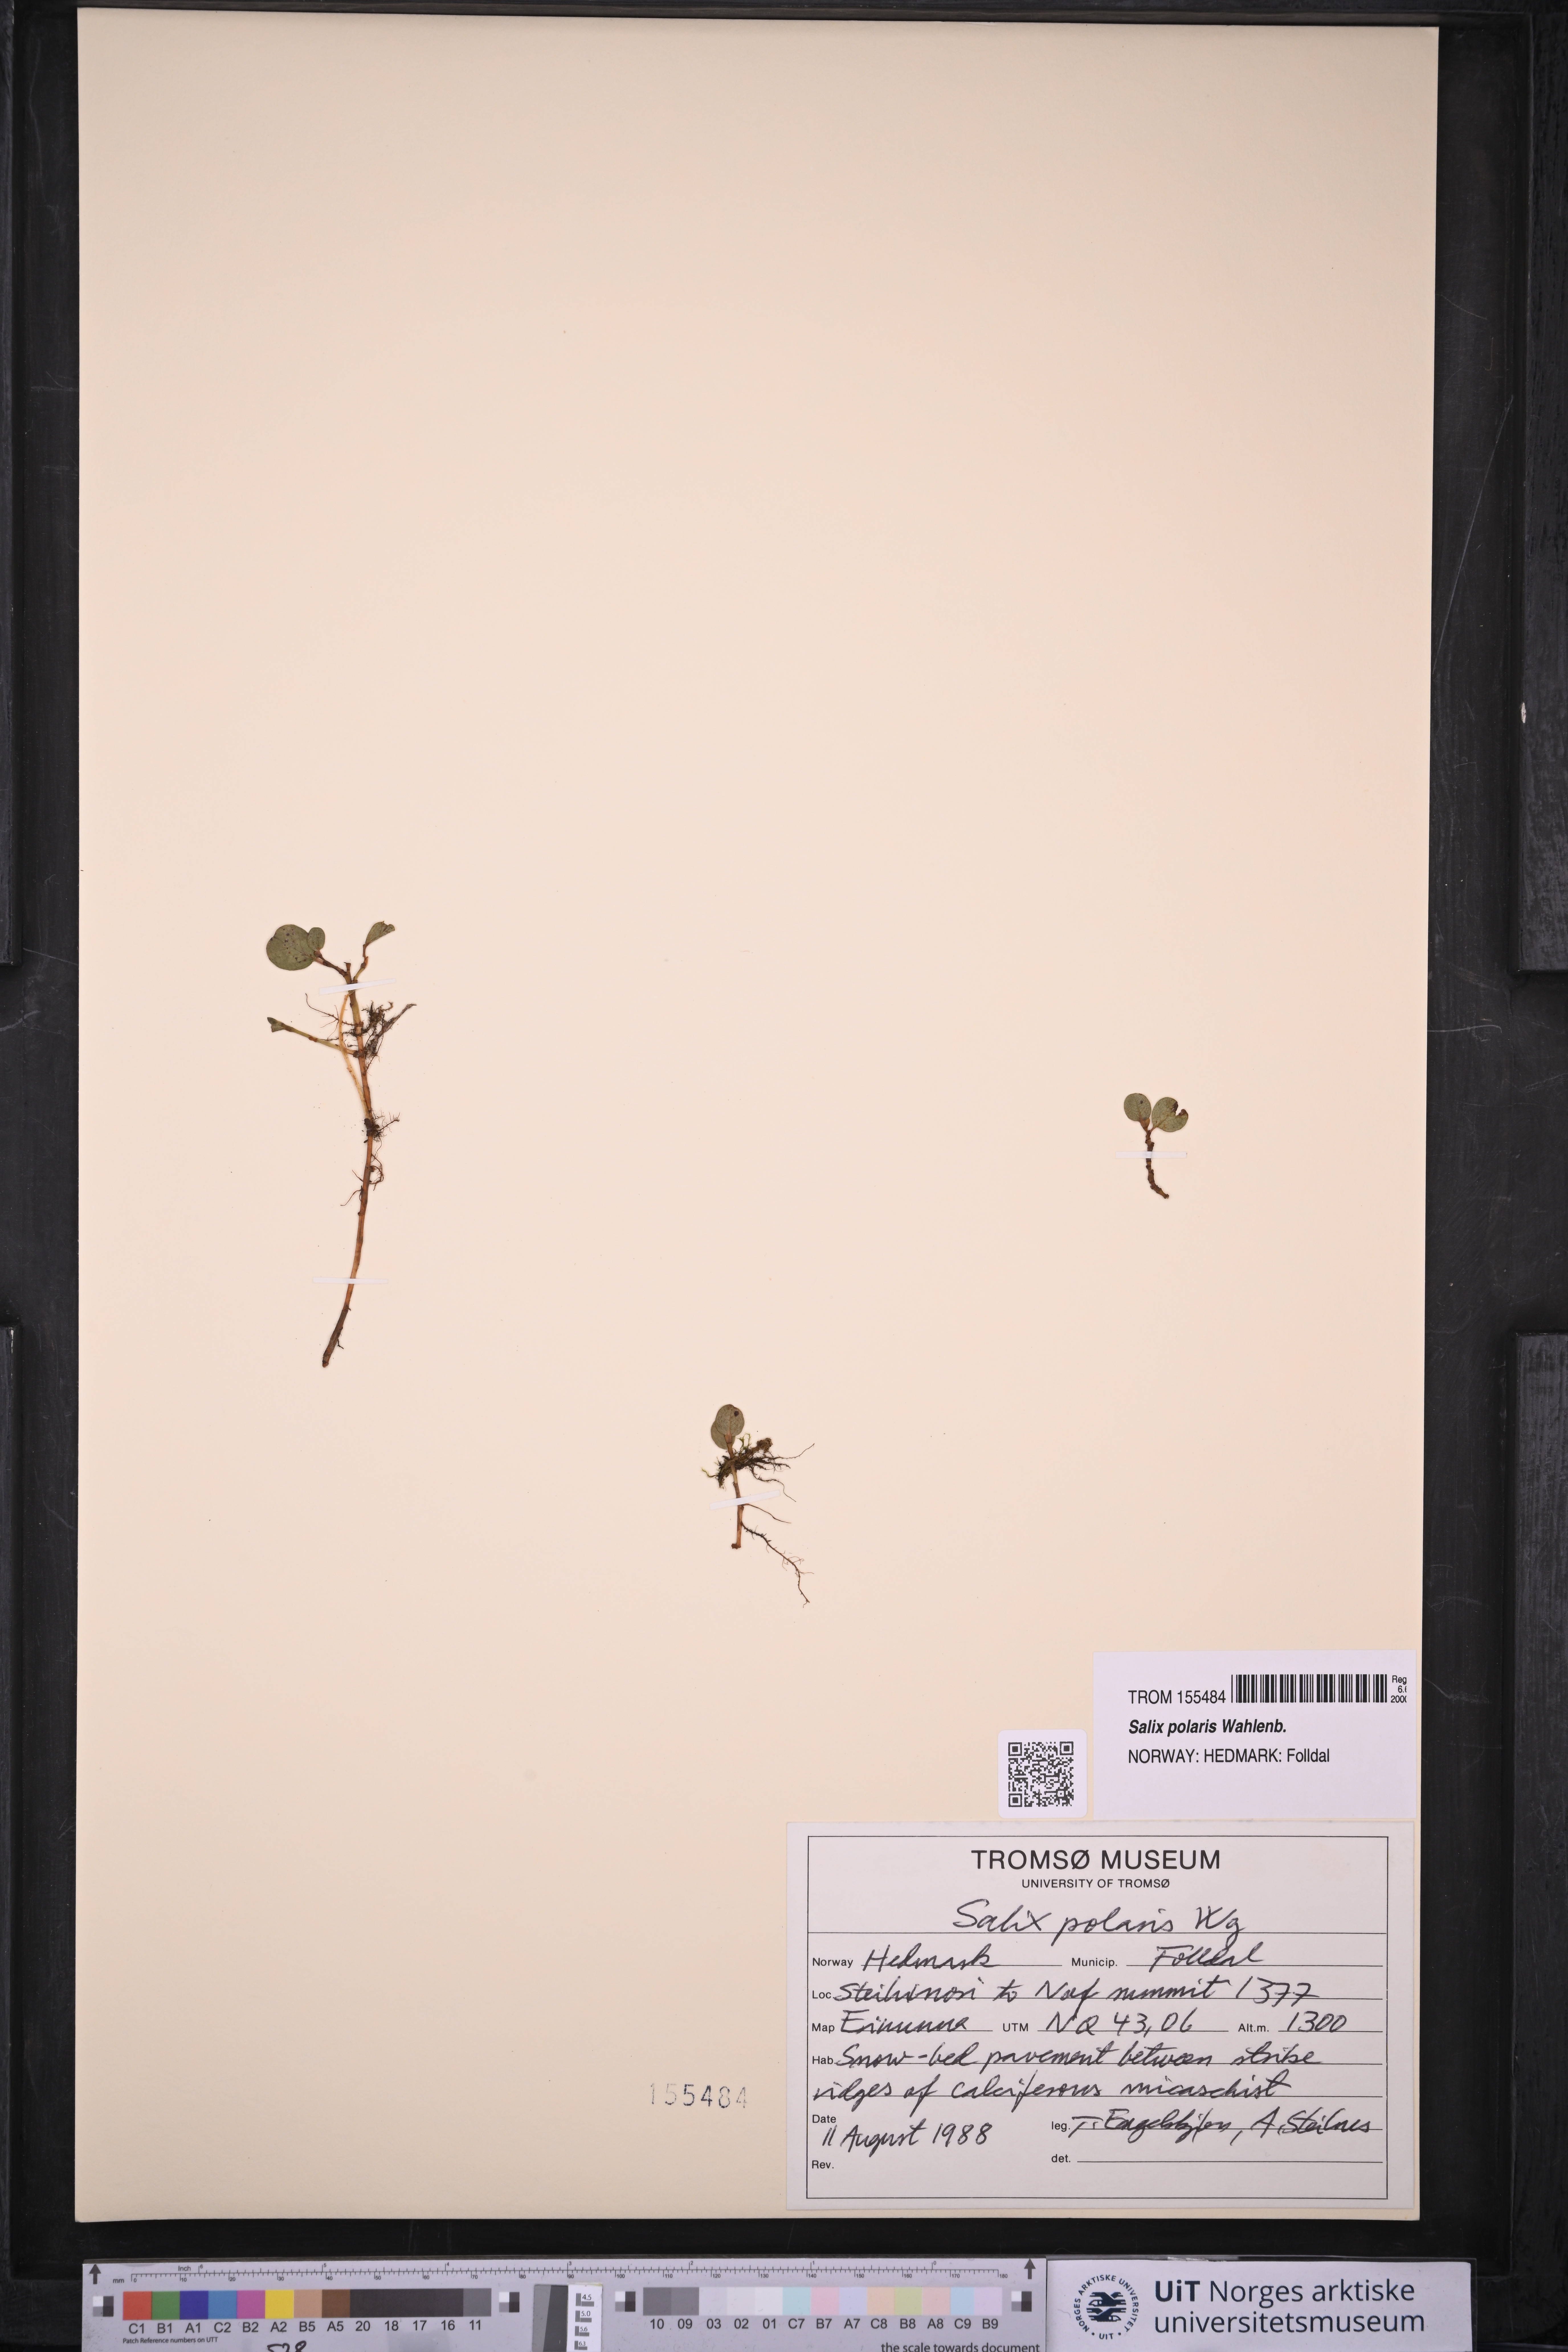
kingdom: Plantae
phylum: Tracheophyta
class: Magnoliopsida
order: Malpighiales
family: Salicaceae
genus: Salix
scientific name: Salix polaris
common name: Polar willow
